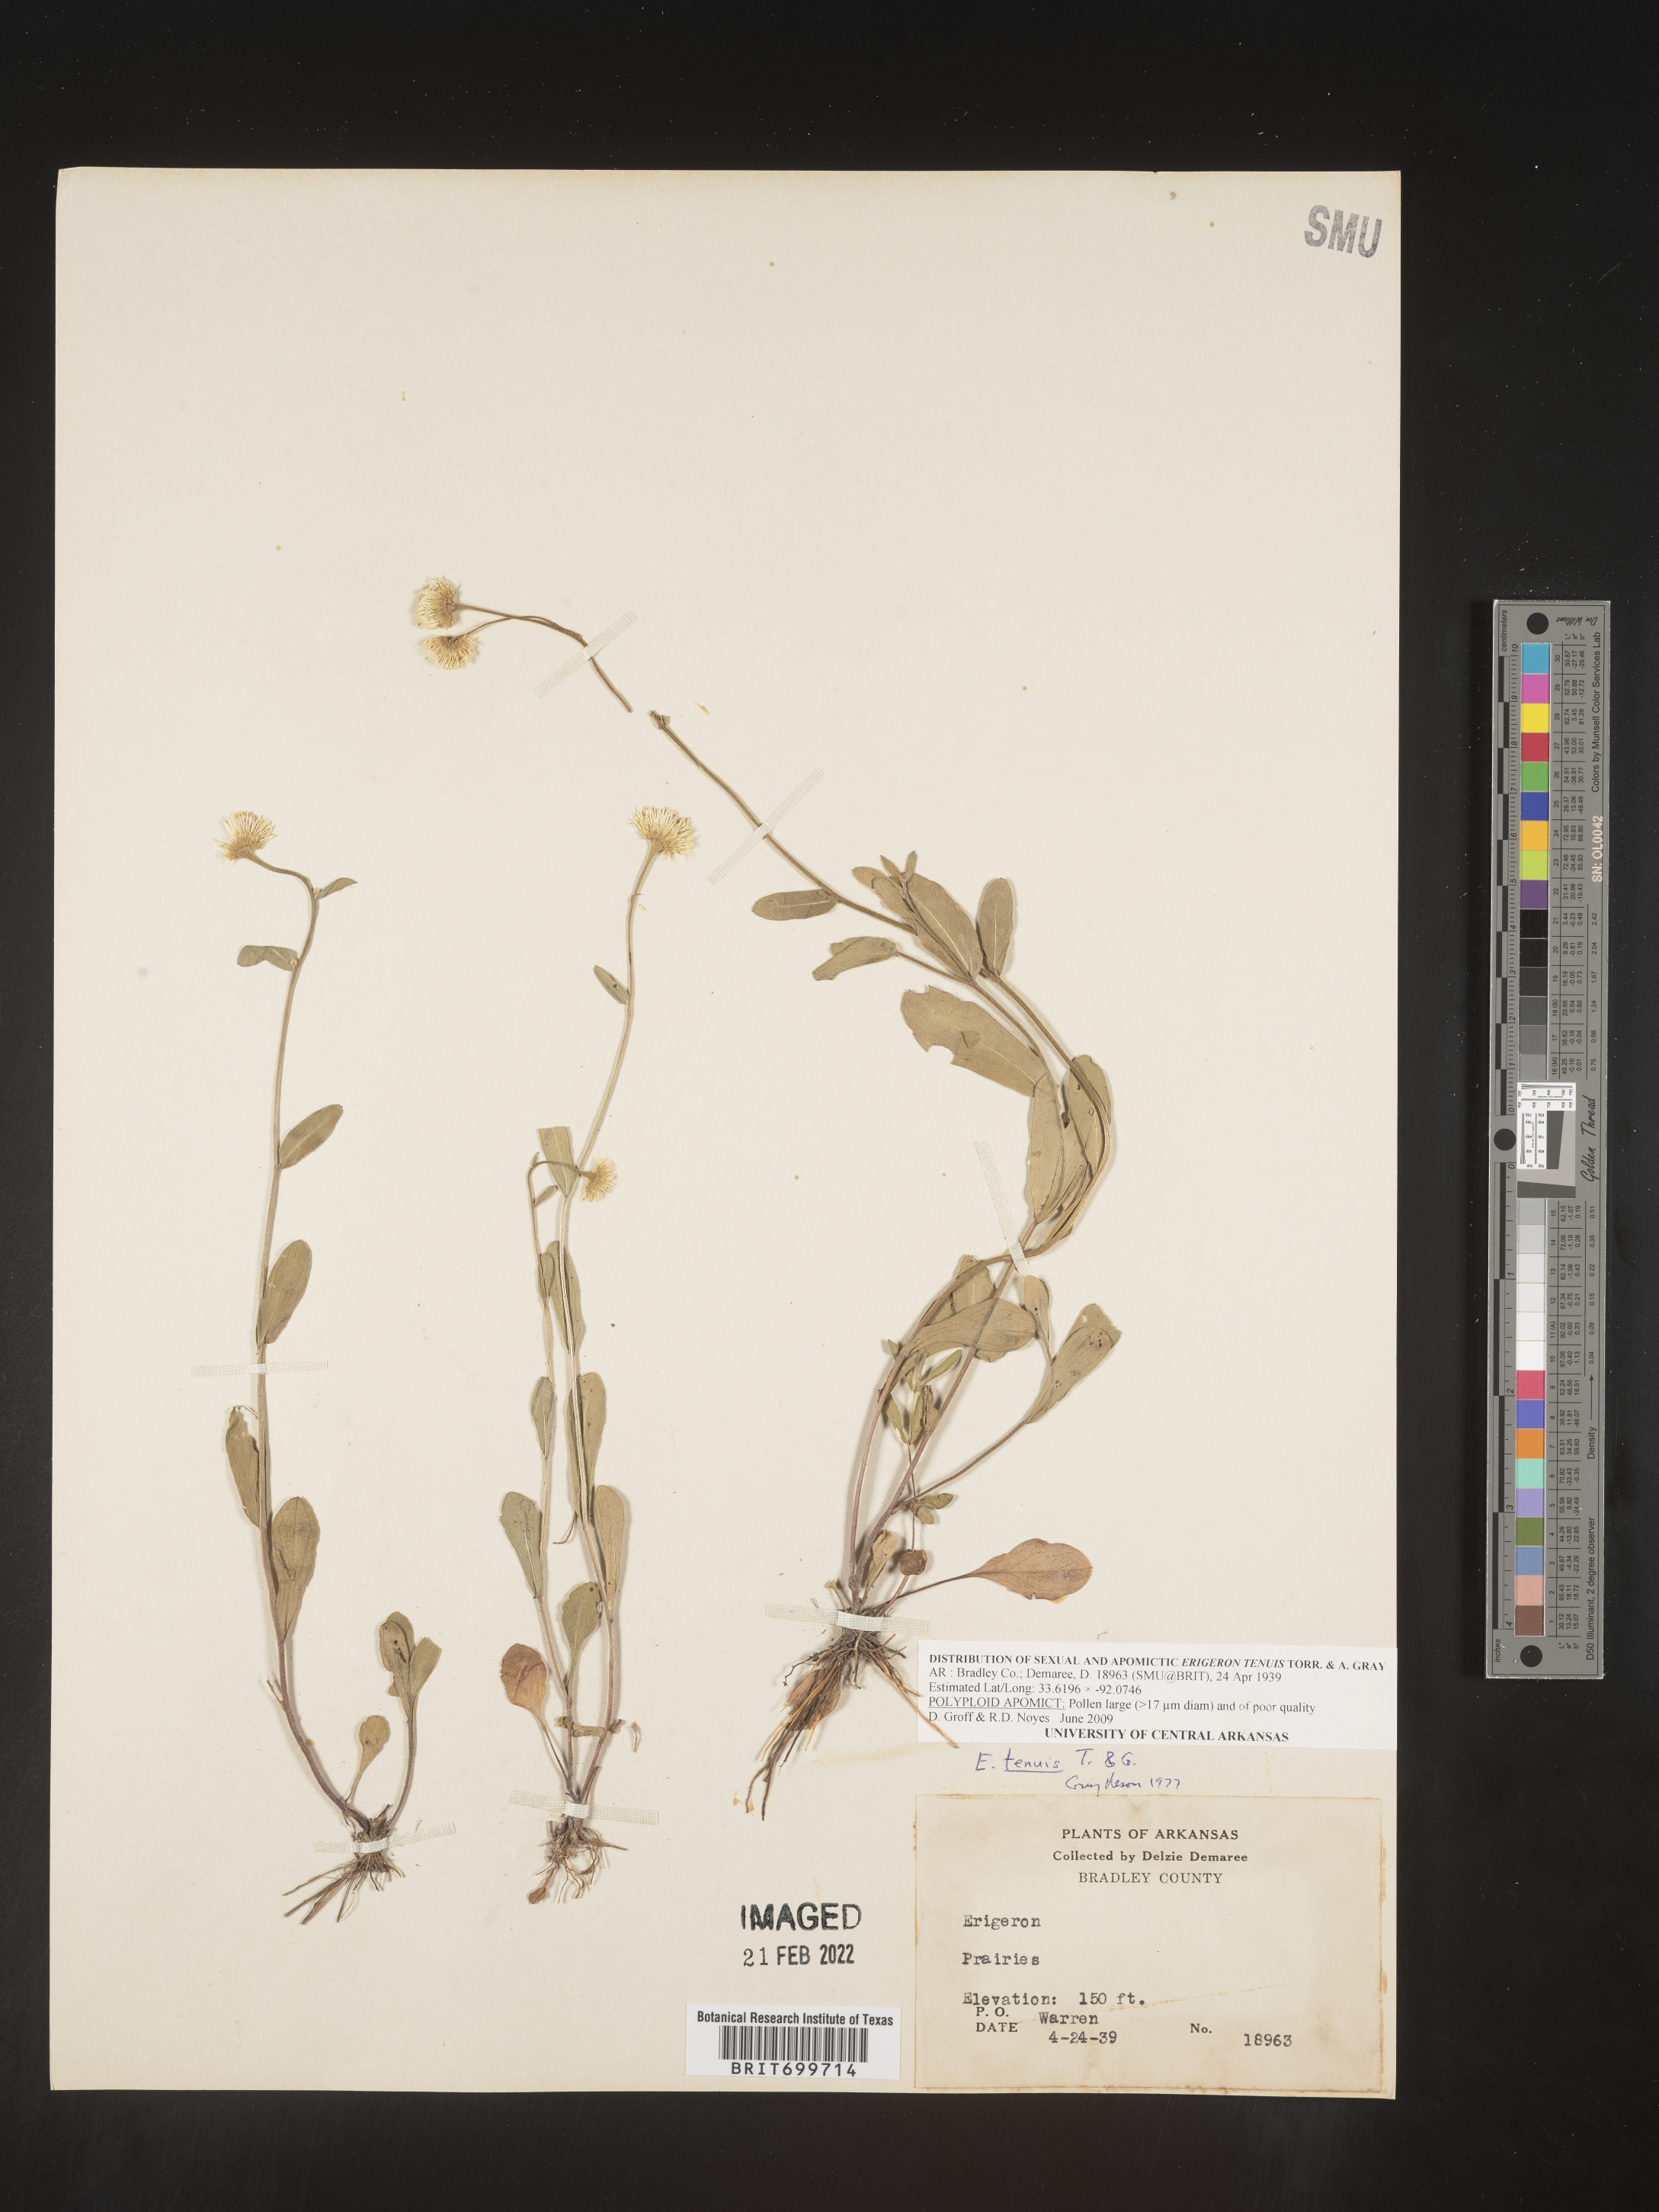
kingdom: Plantae
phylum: Tracheophyta
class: Magnoliopsida
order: Asterales
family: Asteraceae
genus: Erigeron
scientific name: Erigeron tenuis
